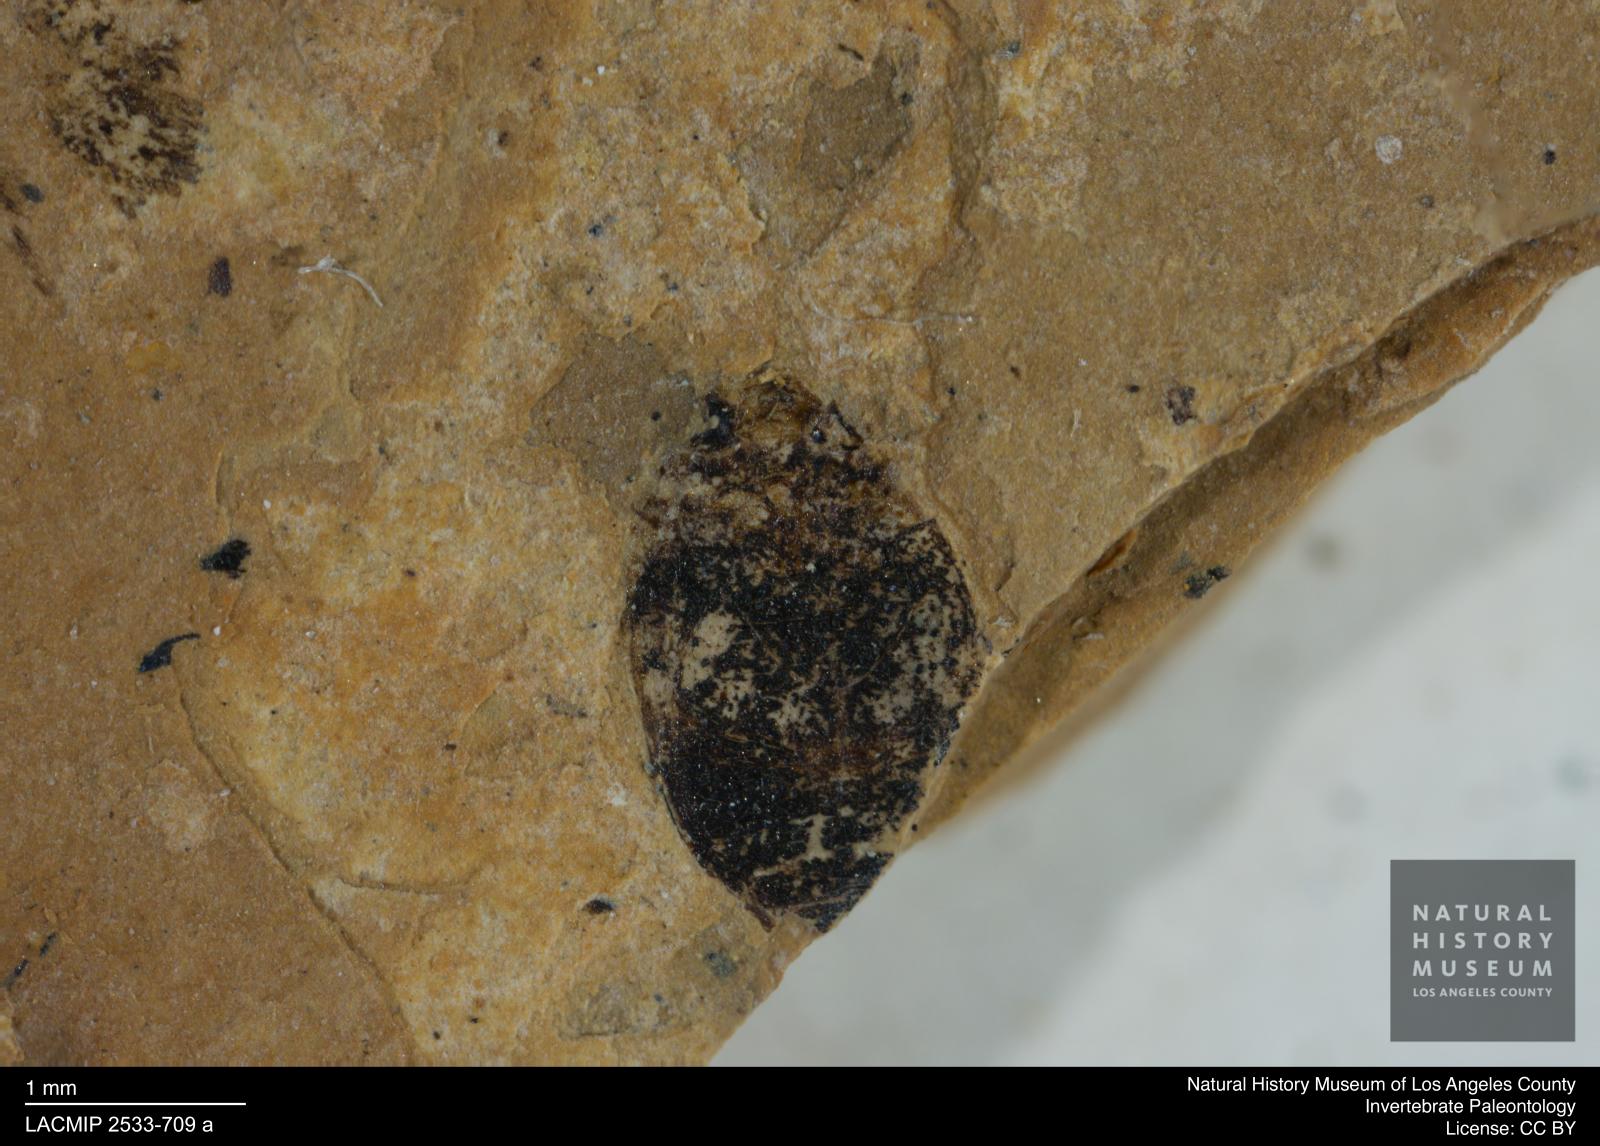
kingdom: Animalia
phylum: Arthropoda
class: Insecta
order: Coleoptera
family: Dytiscidae
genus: Oreodytes
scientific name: Oreodytes cryptolineatus
